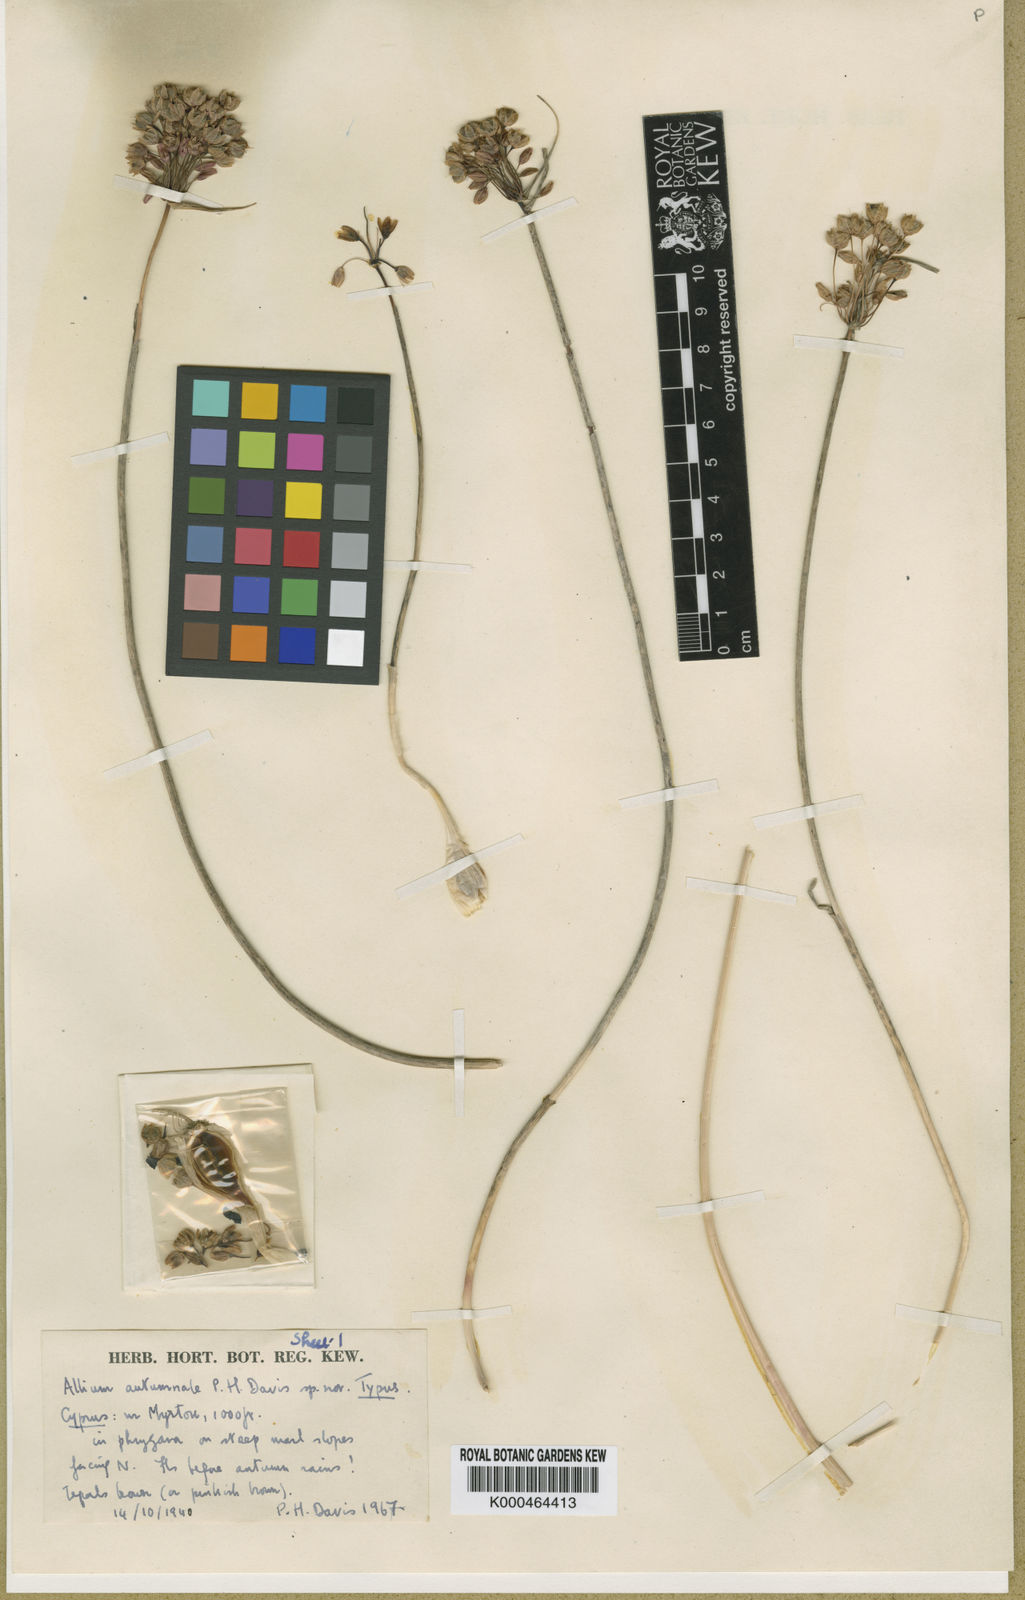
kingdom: Plantae
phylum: Tracheophyta
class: Liliopsida
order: Asparagales
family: Amaryllidaceae
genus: Allium
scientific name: Allium autumnale
